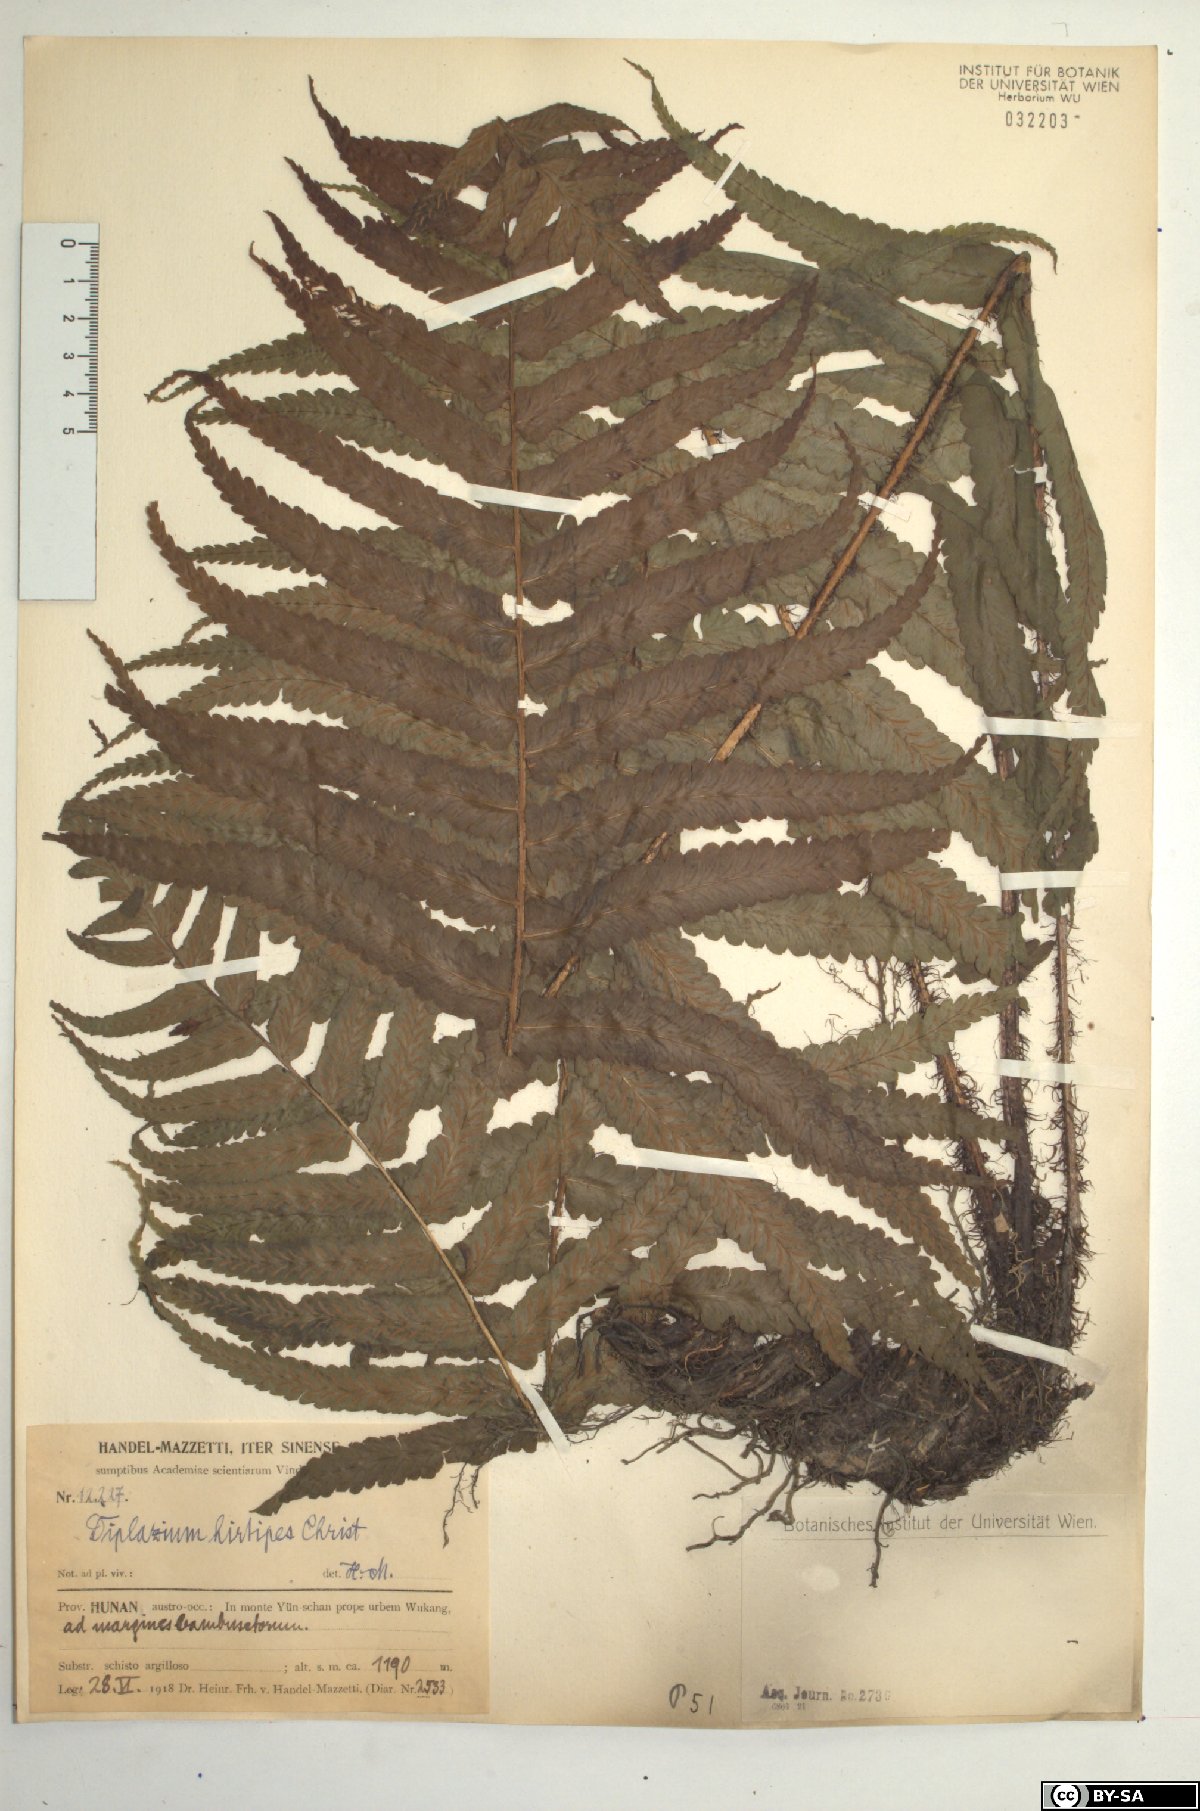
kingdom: Plantae
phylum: Tracheophyta
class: Polypodiopsida
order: Polypodiales
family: Athyriaceae
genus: Diplazium
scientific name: Diplazium hirtipes
